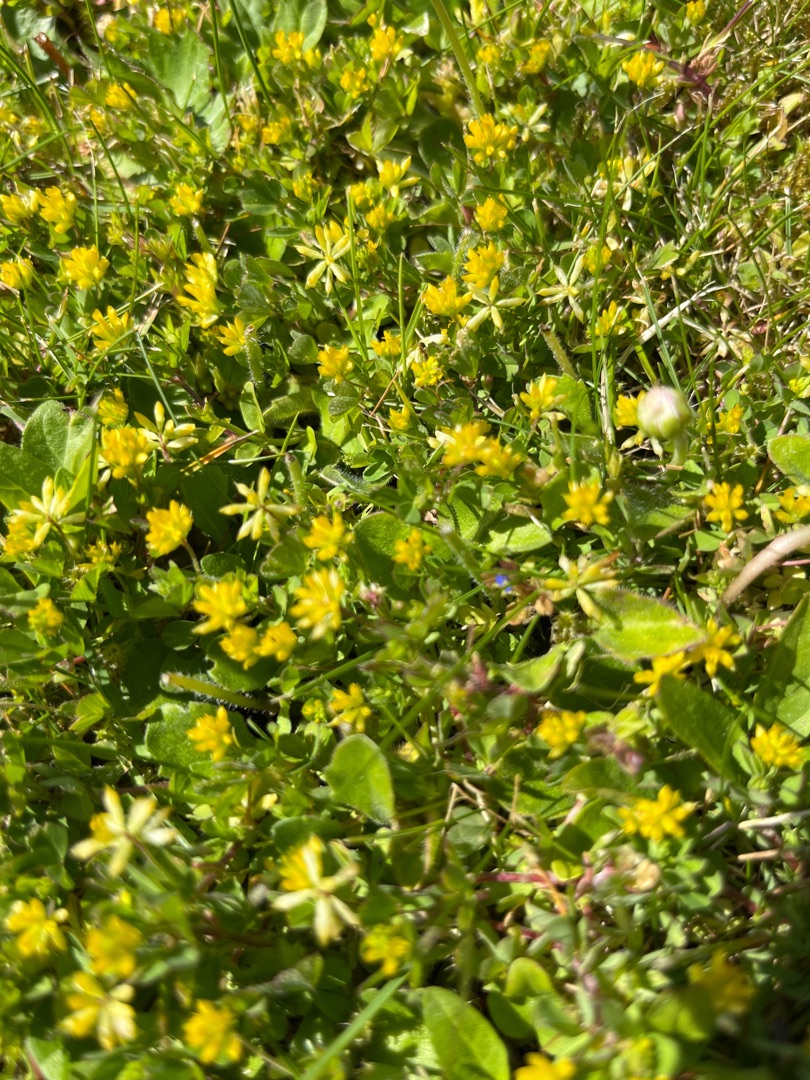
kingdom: Plantae
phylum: Tracheophyta
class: Magnoliopsida
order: Fabales
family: Fabaceae
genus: Trifolium
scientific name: Trifolium dubium
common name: Fin kløver
